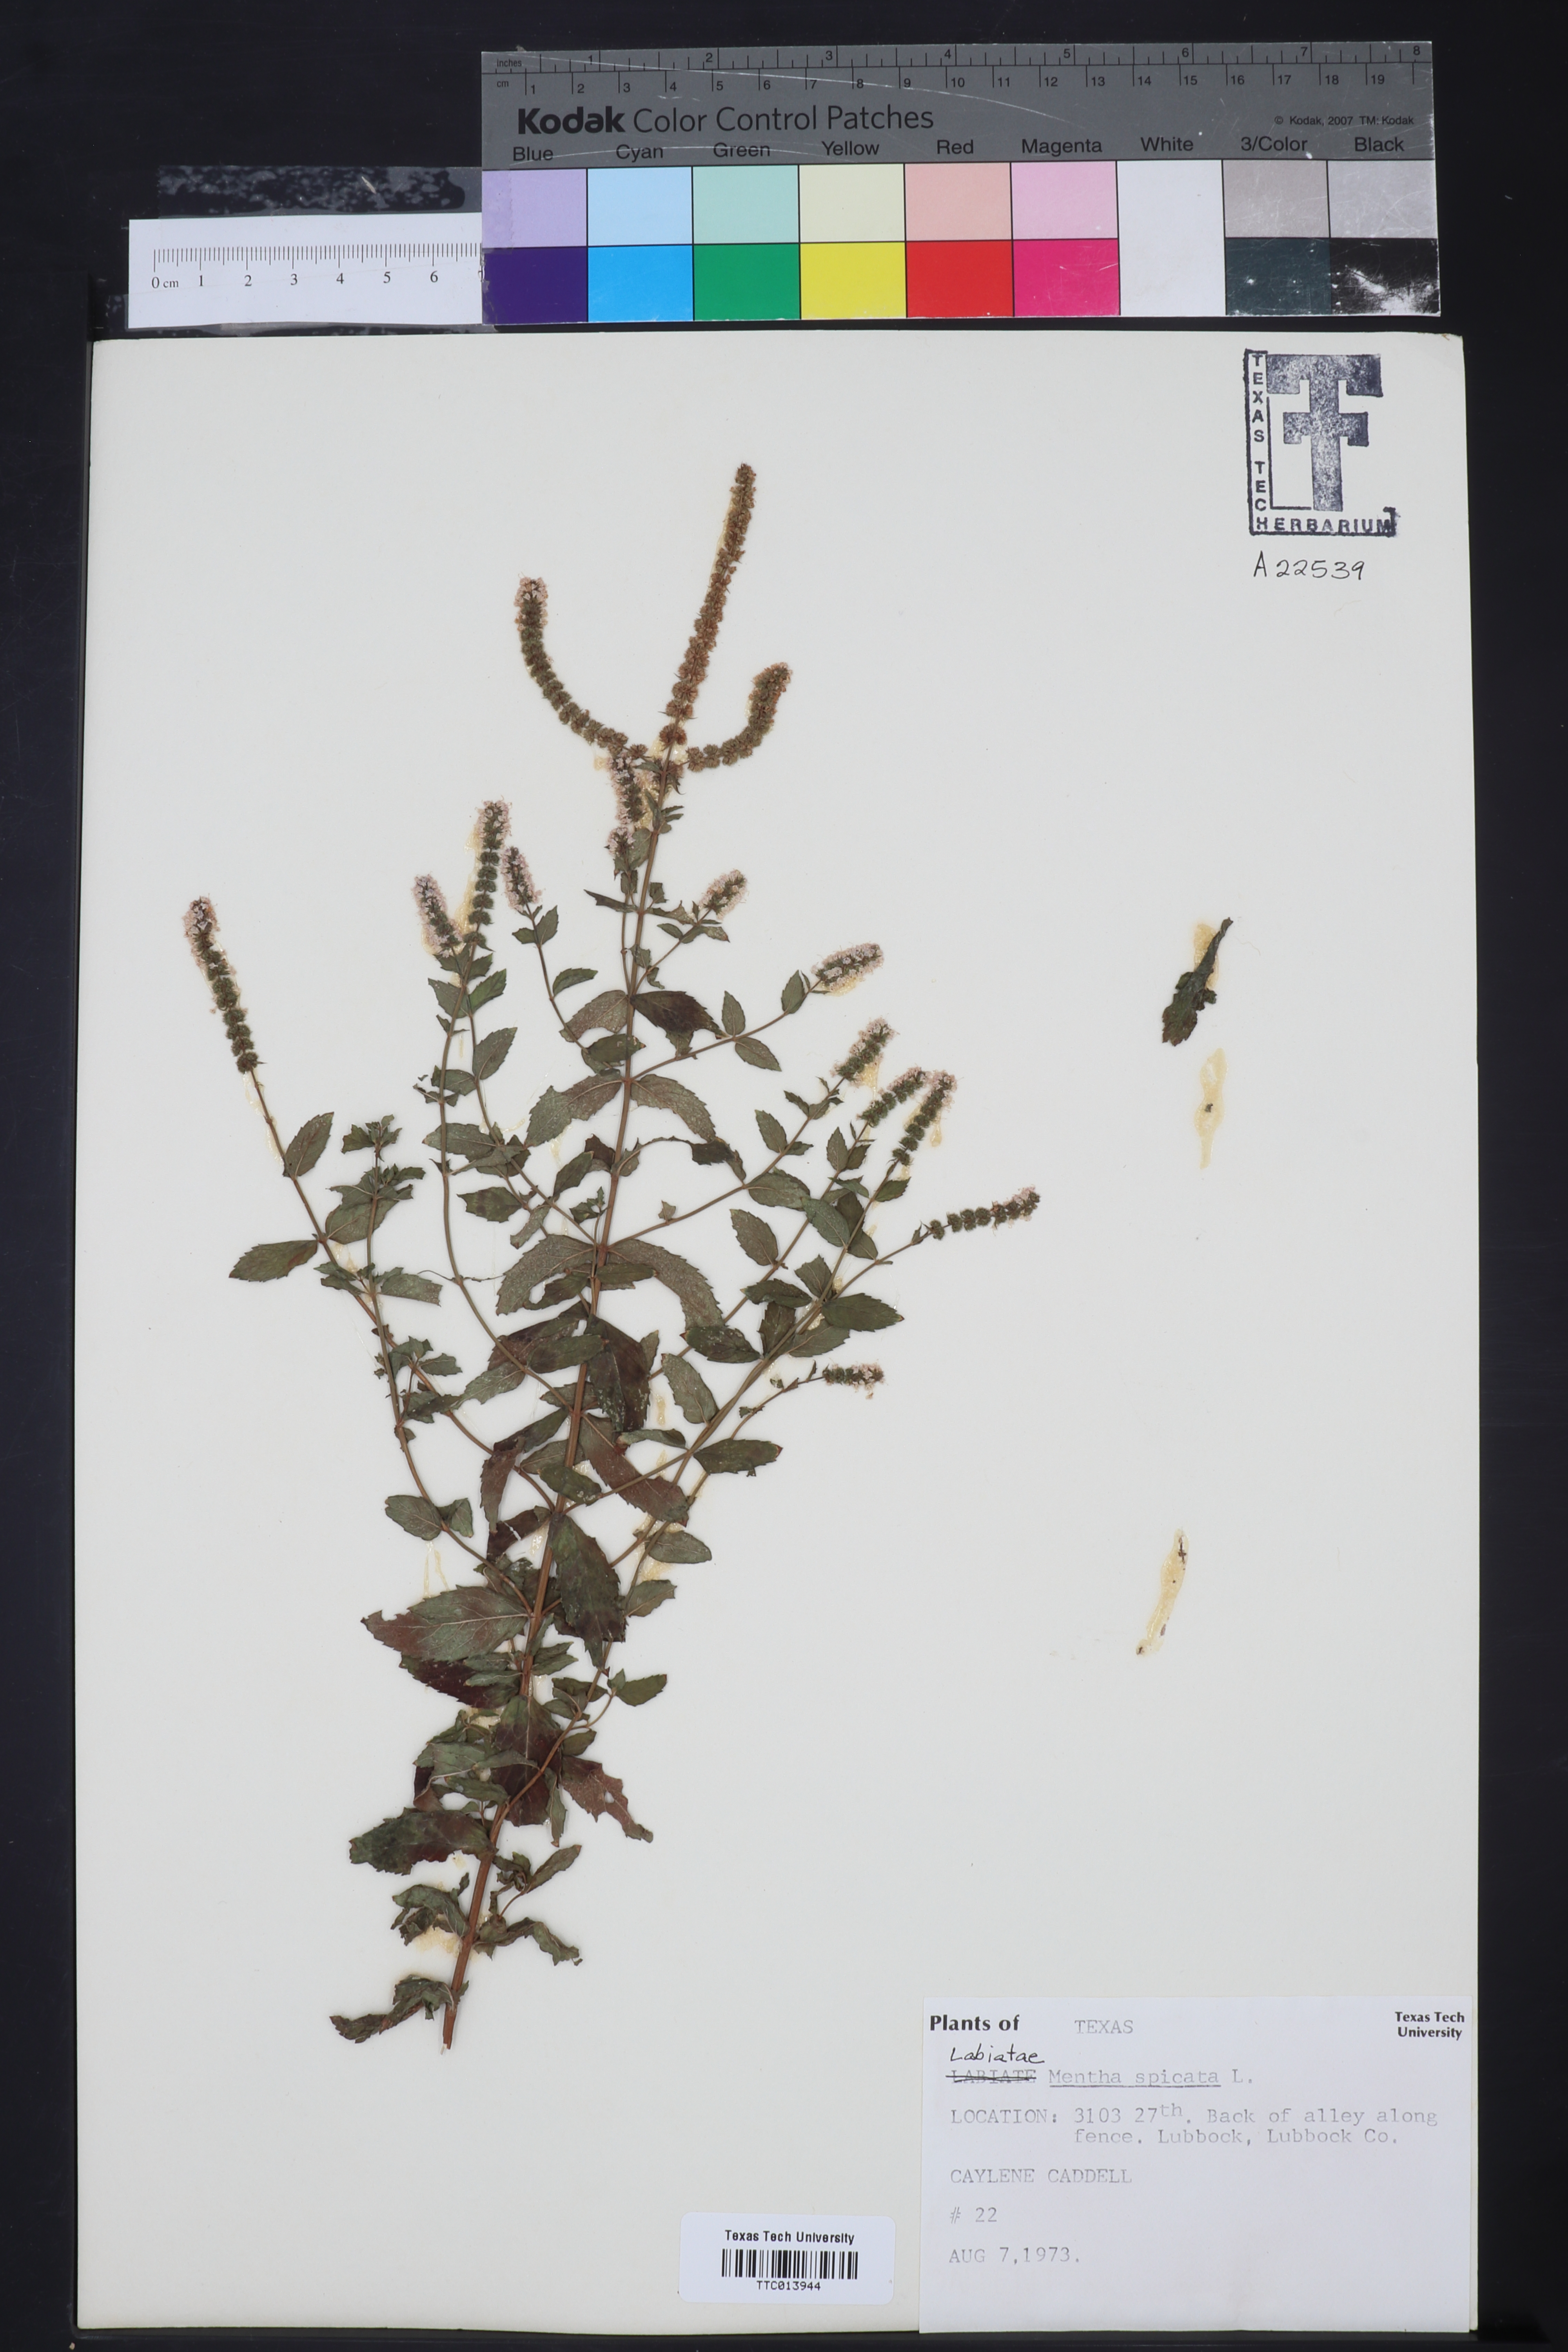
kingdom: Plantae
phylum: Tracheophyta
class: Magnoliopsida
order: Lamiales
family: Lamiaceae
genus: Mentha
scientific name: Mentha spicata
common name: Spearmint
